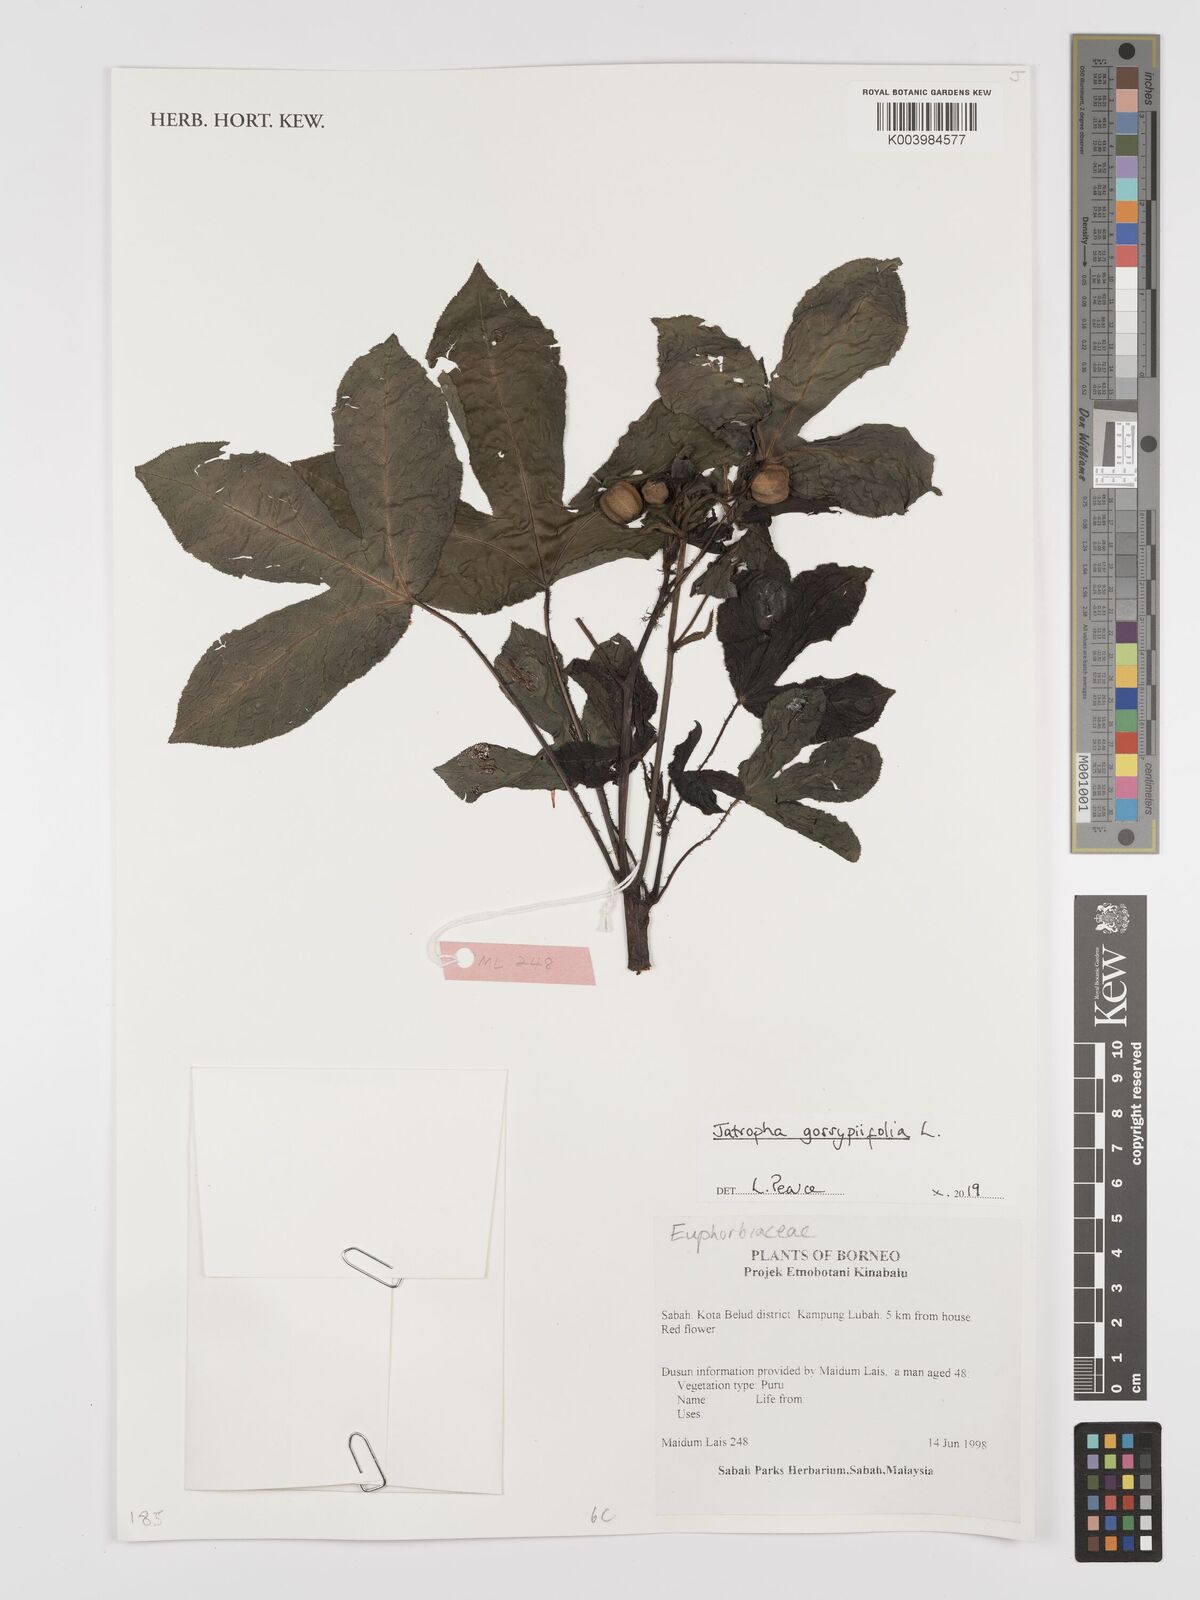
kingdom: Plantae
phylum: Tracheophyta
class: Magnoliopsida
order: Malpighiales
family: Euphorbiaceae
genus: Jatropha
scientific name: Jatropha gossypiifolia
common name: Bellyache bush
